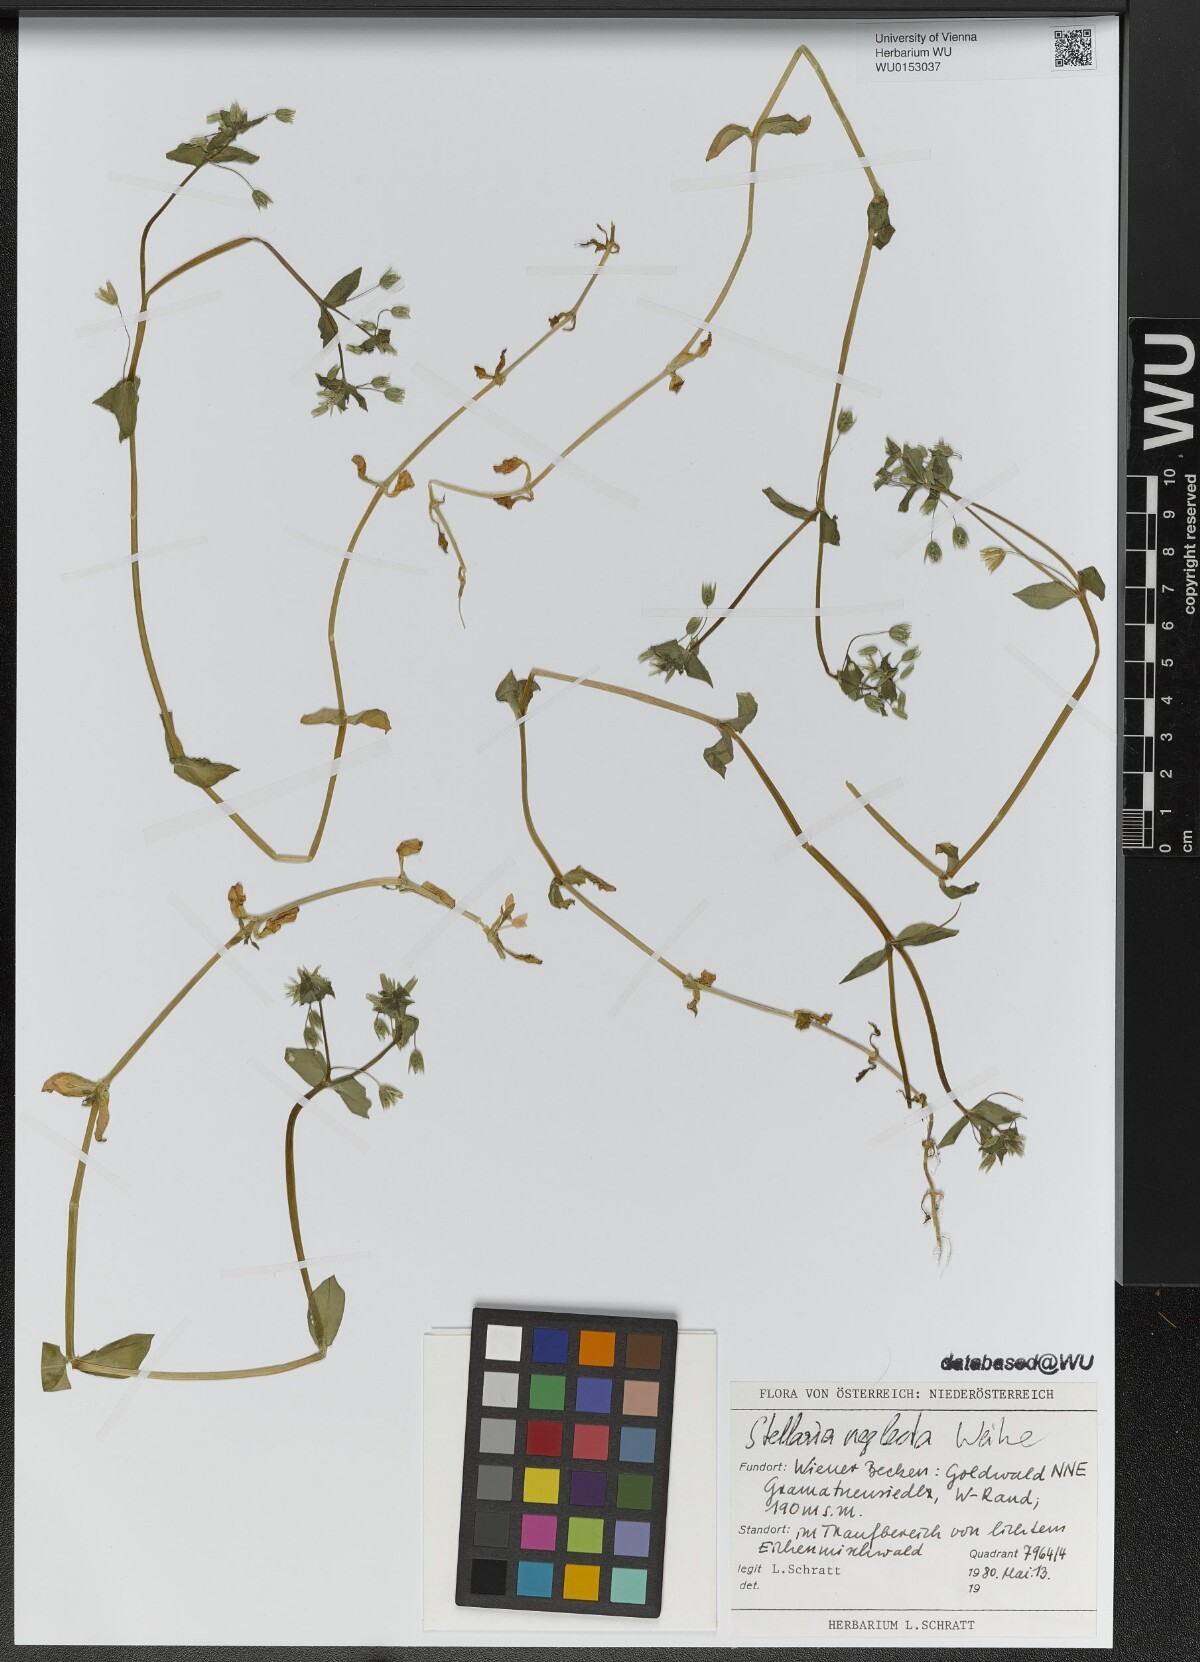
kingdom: Plantae
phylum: Tracheophyta
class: Magnoliopsida
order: Caryophyllales
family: Caryophyllaceae
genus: Stellaria
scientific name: Stellaria neglecta
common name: Greater chickweed
